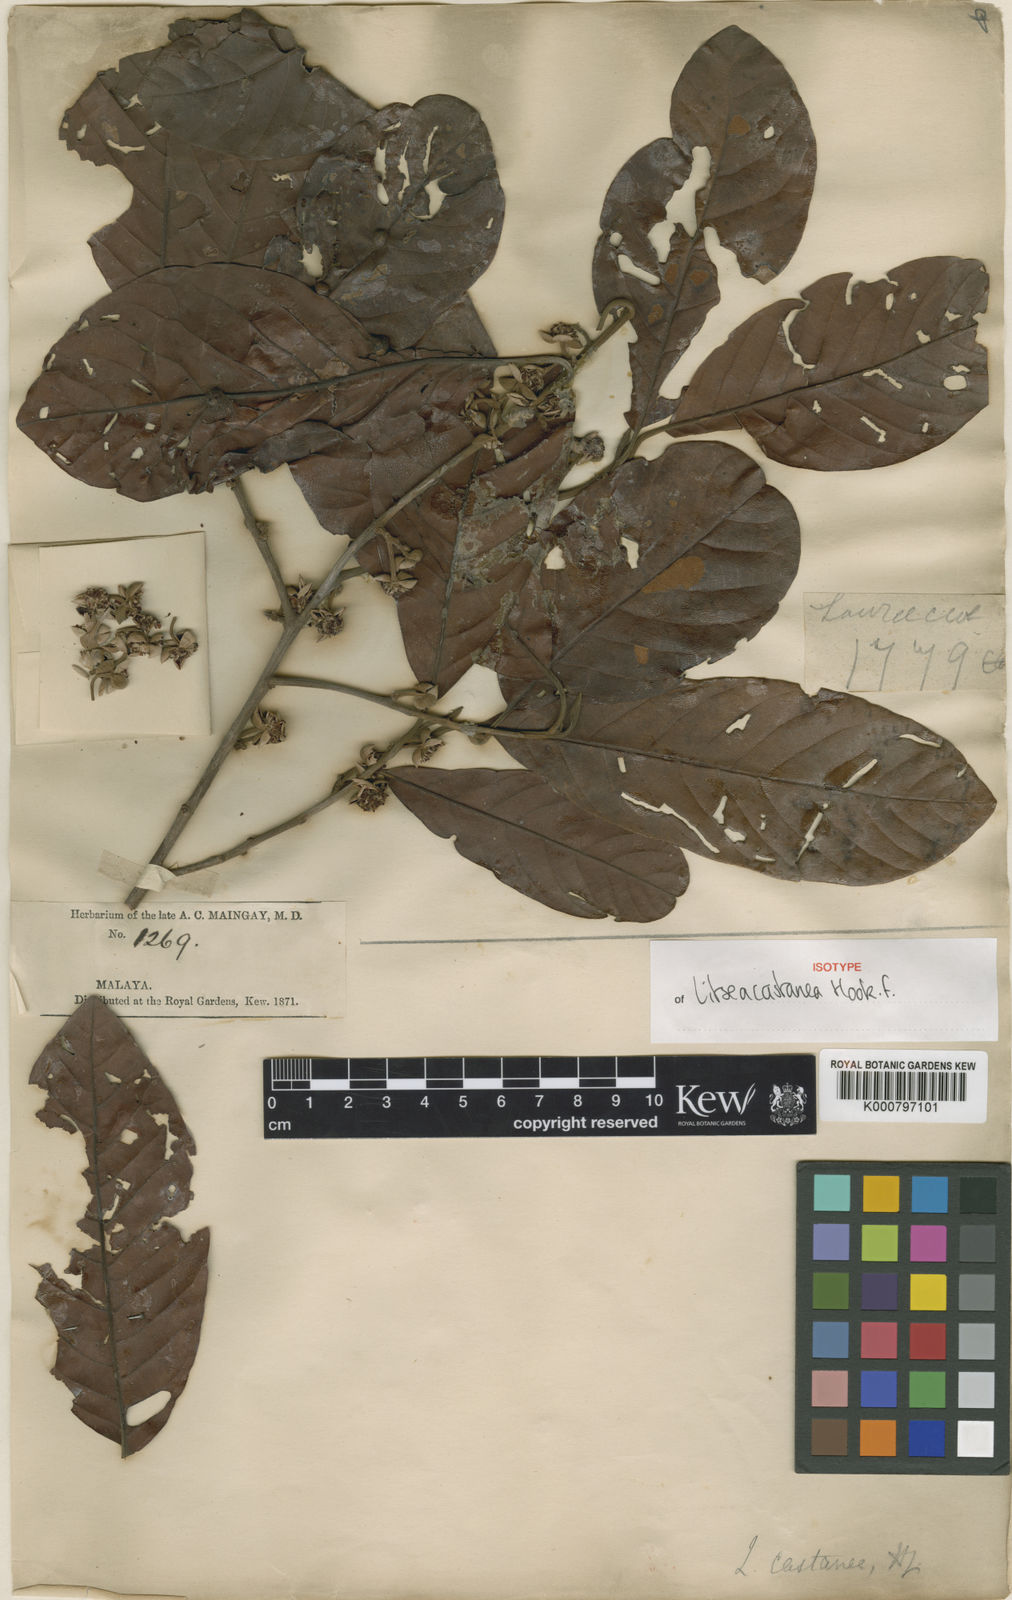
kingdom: Plantae
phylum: Tracheophyta
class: Magnoliopsida
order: Laurales
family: Lauraceae
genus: Litsea
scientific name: Litsea castanea
